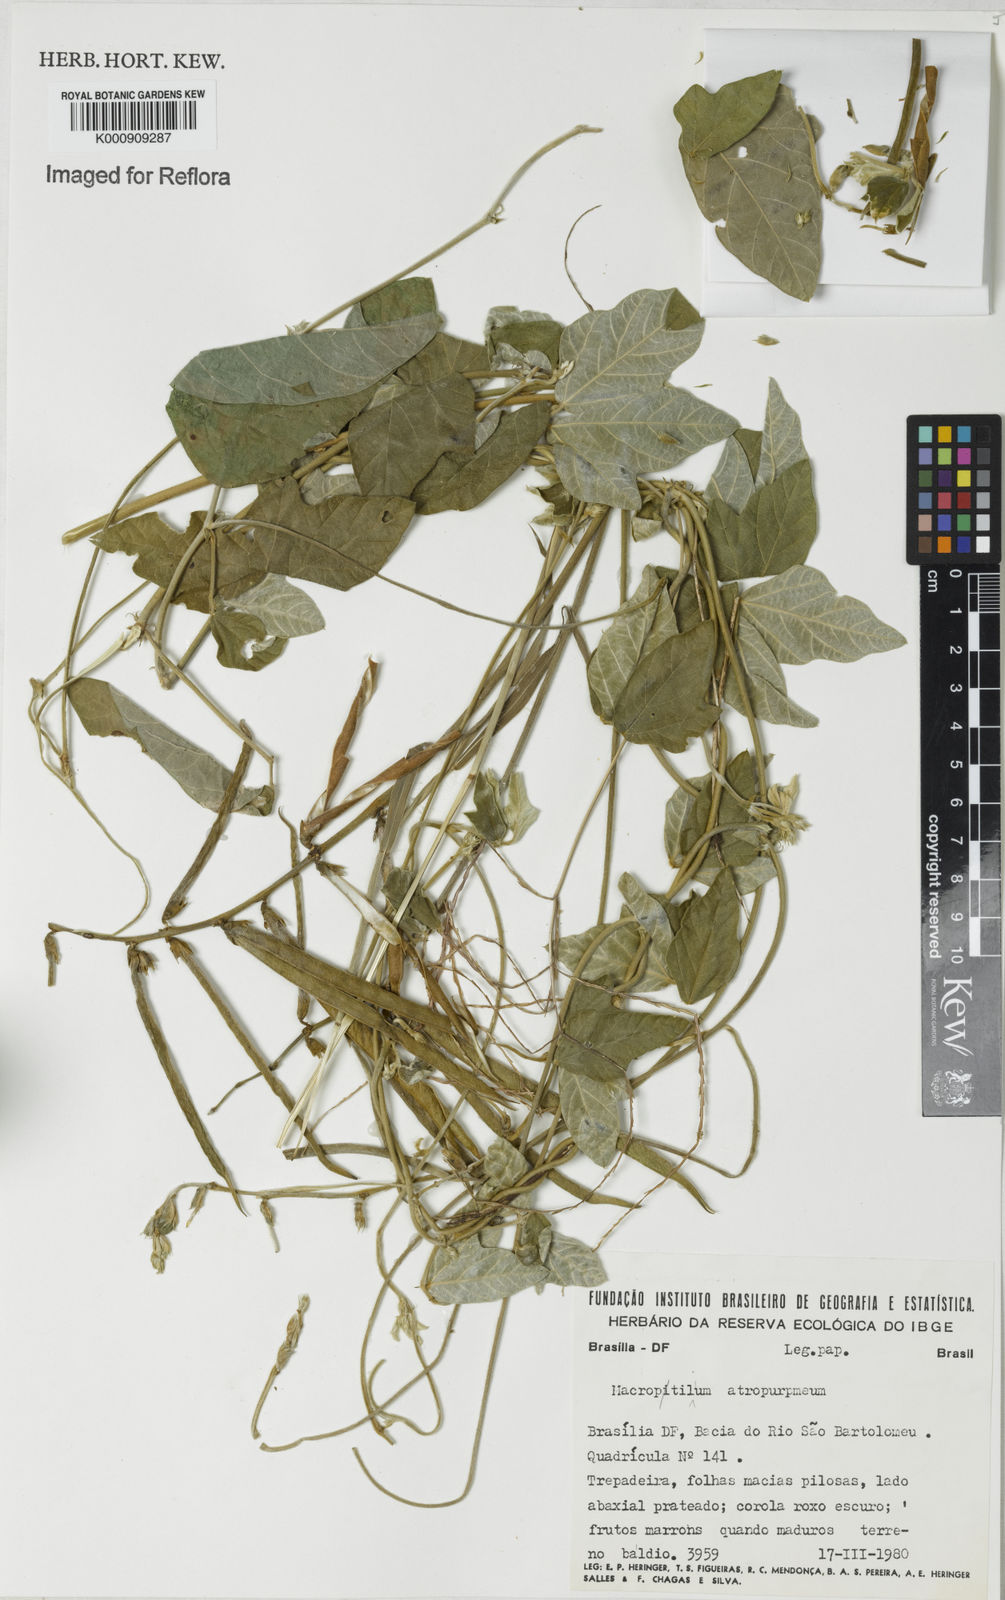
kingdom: Plantae
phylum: Tracheophyta
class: Magnoliopsida
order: Fabales
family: Fabaceae
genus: Macroptilium
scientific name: Macroptilium atropurpureum
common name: Purple bushbean
